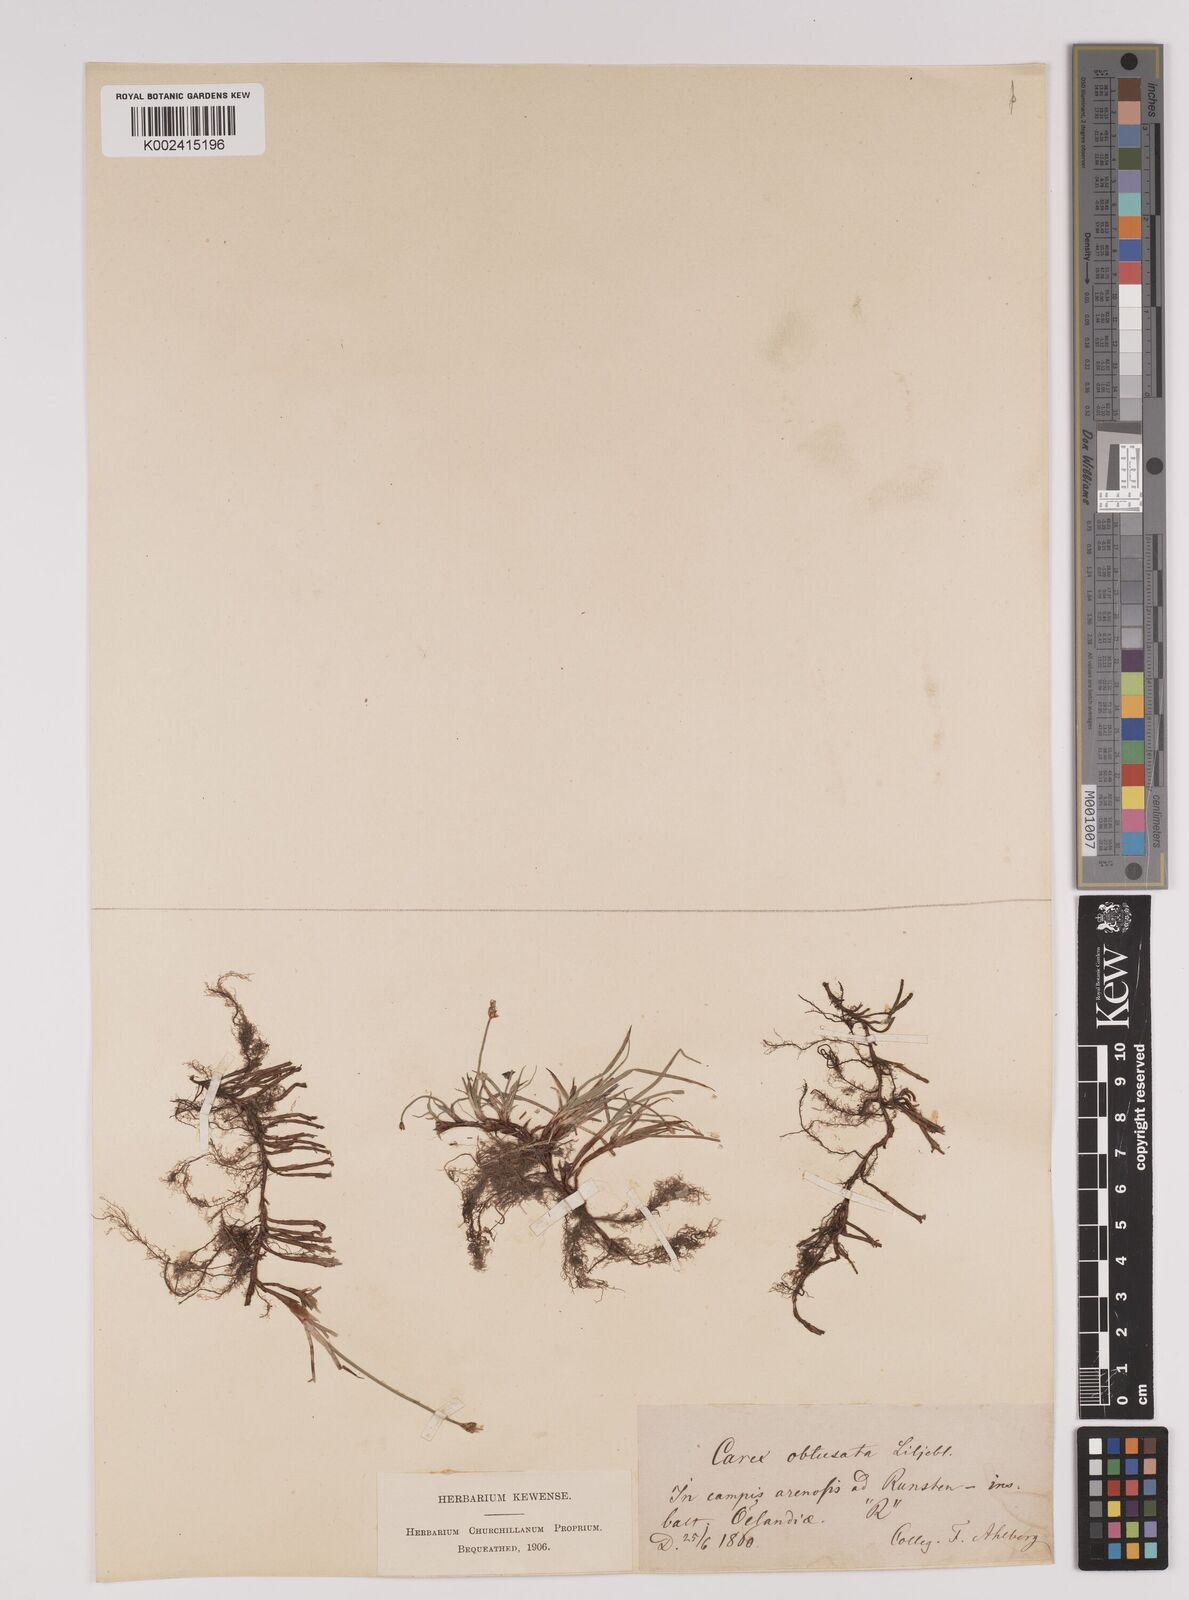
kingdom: Plantae
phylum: Tracheophyta
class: Liliopsida
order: Poales
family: Cyperaceae
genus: Carex
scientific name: Carex obtusata
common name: Blunt sedge
